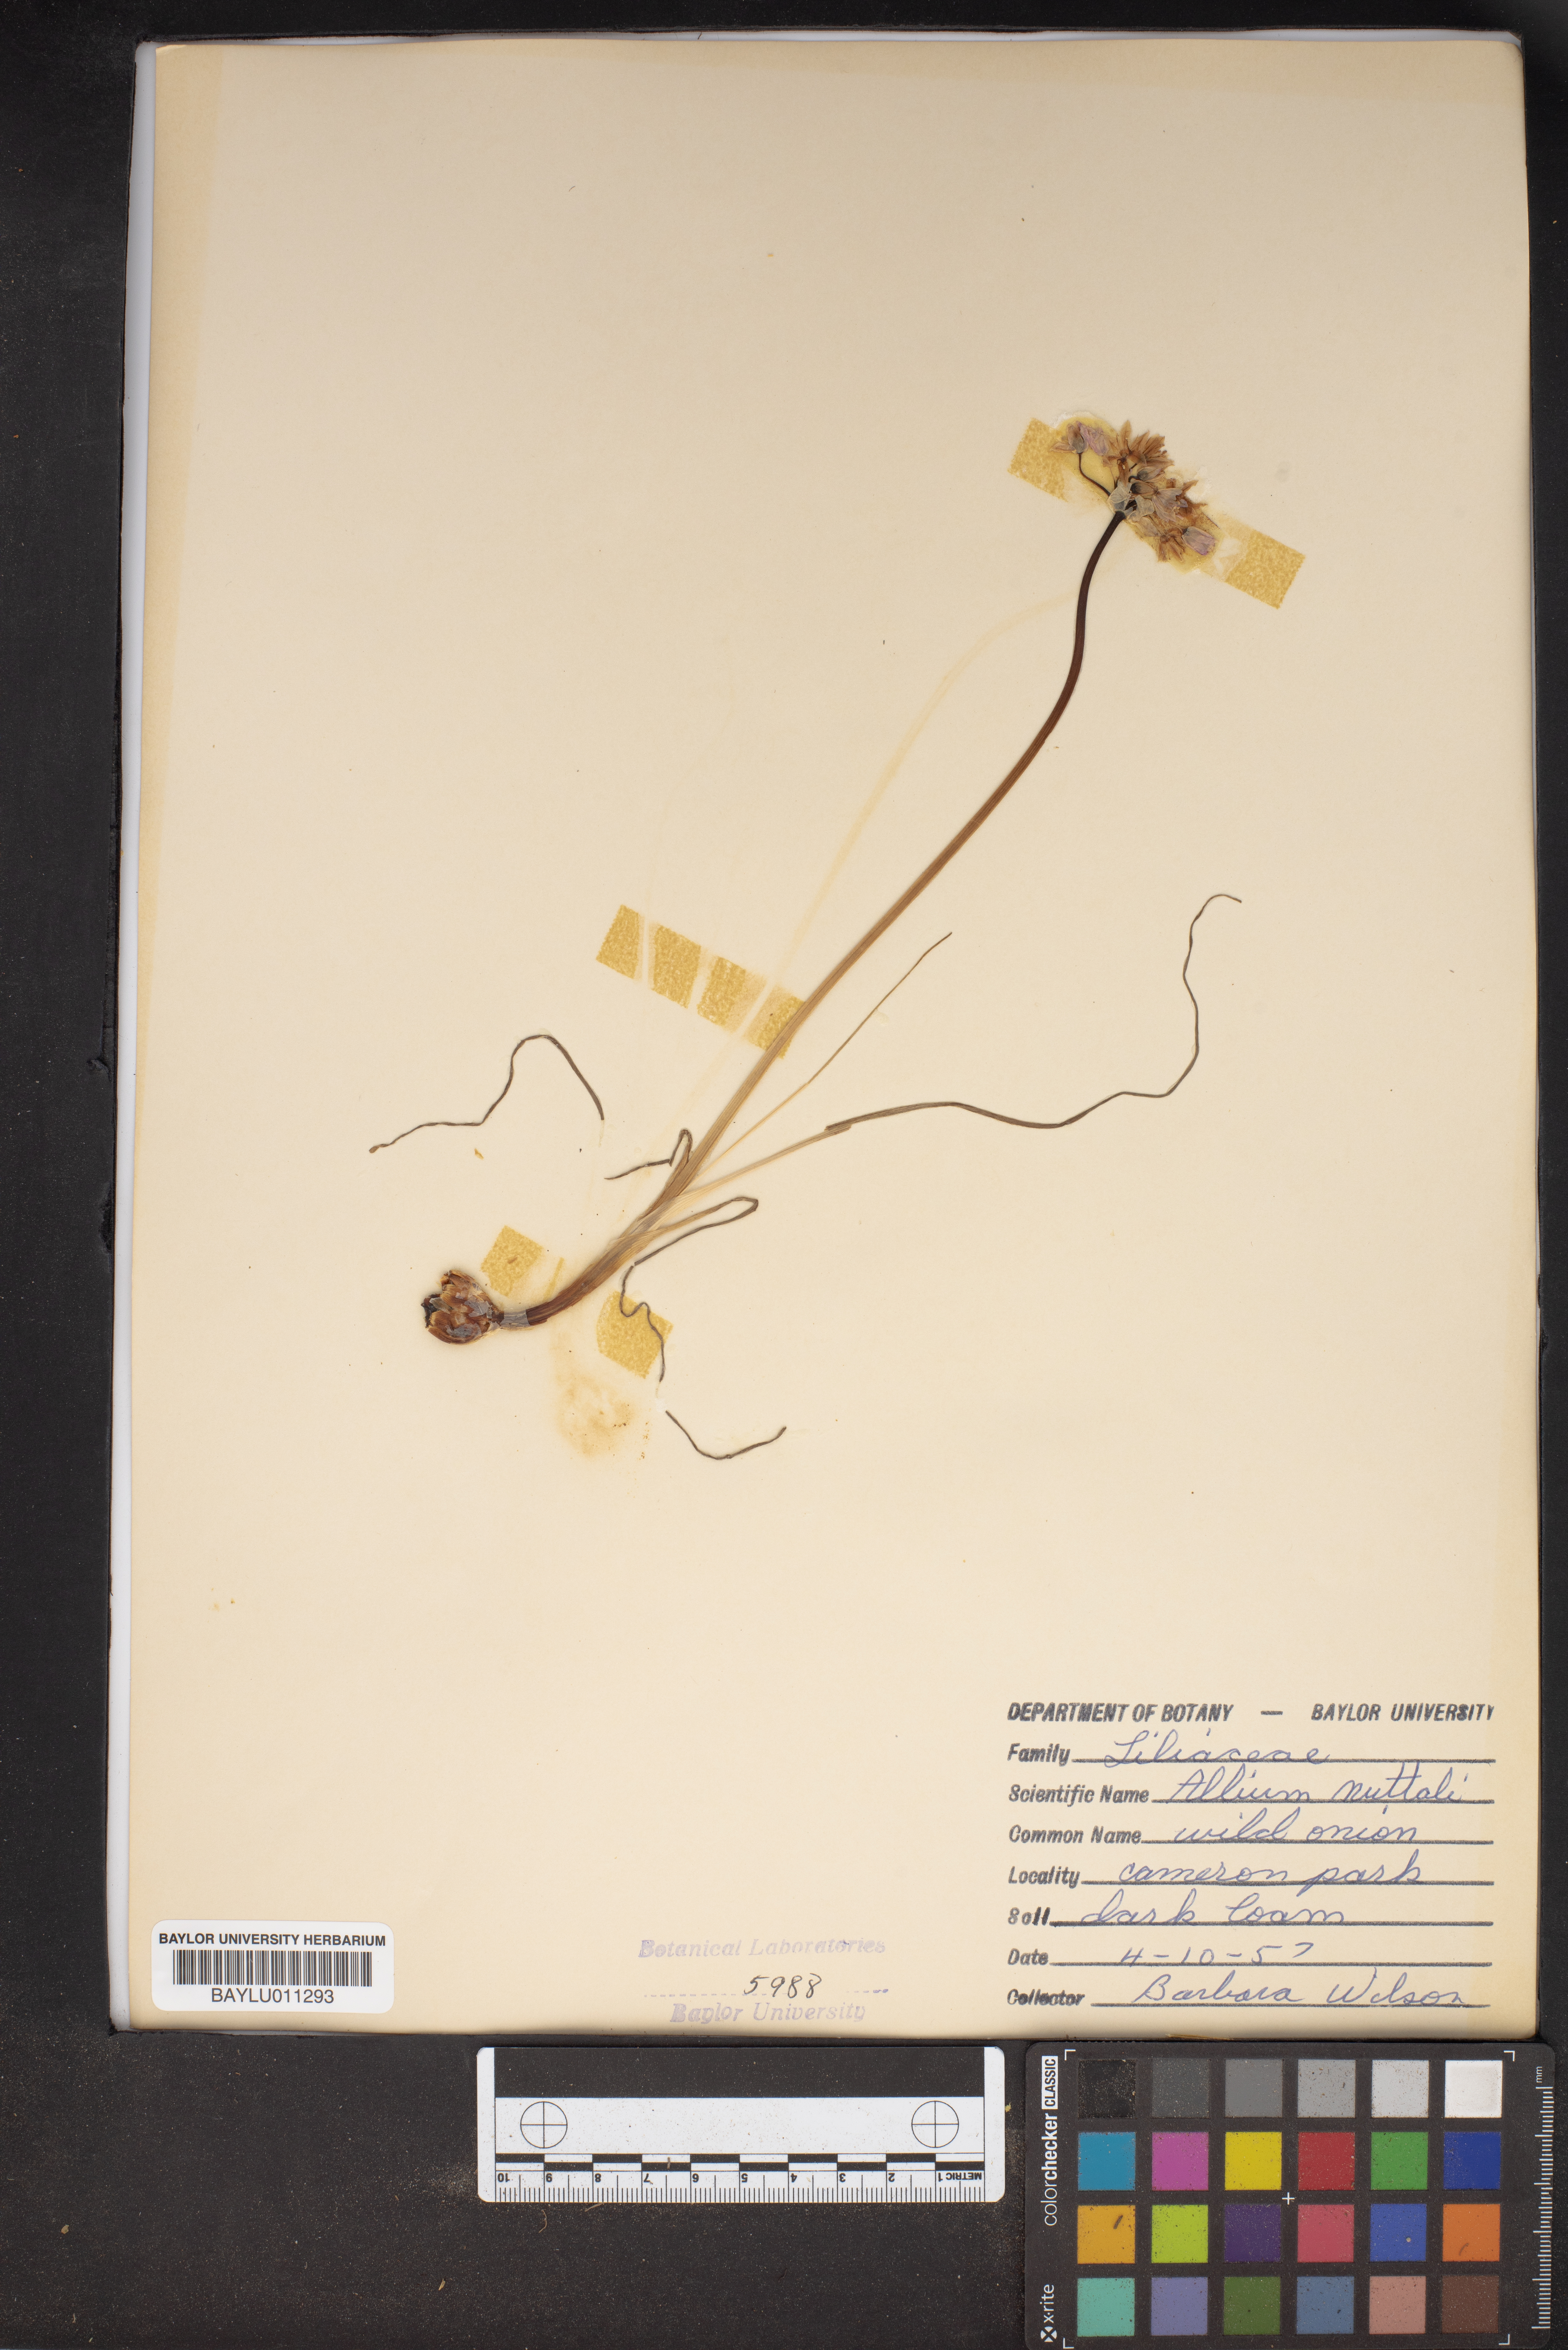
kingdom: Plantae
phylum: Tracheophyta
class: Liliopsida
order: Asparagales
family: Amaryllidaceae
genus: Allium
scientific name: Allium drummondii
